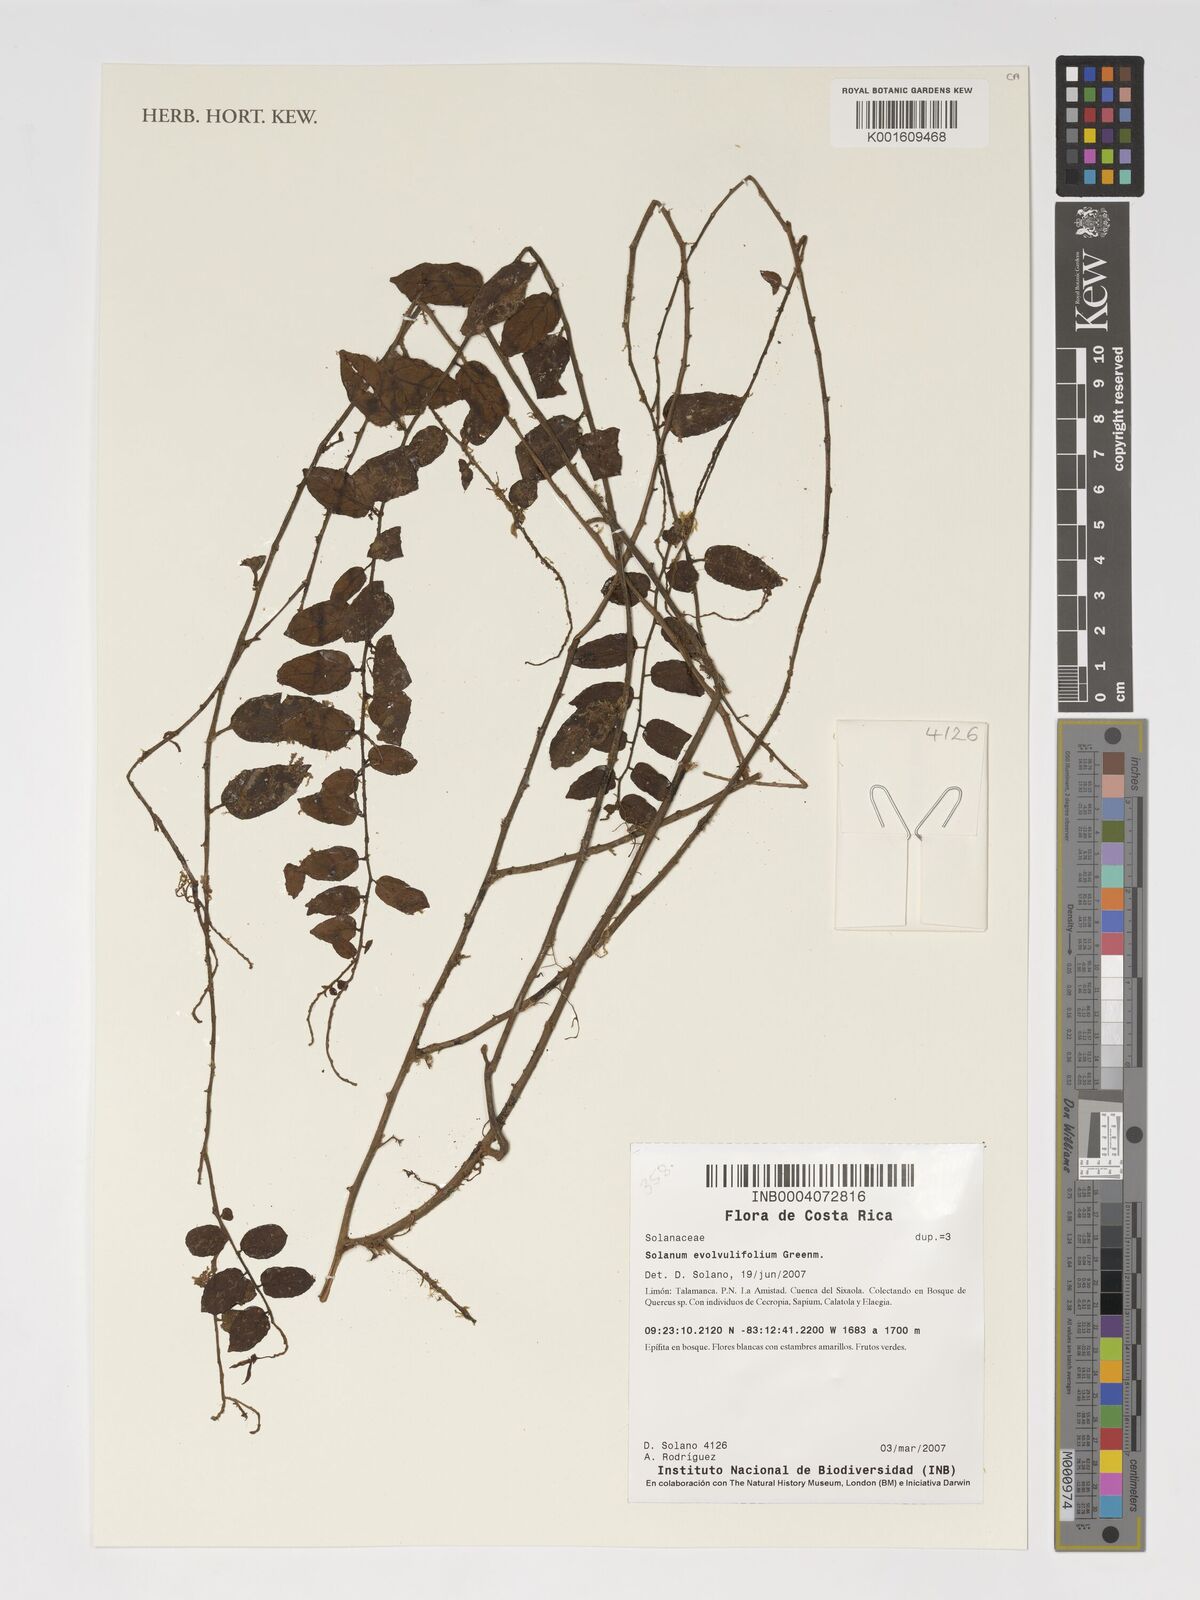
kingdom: Plantae
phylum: Tracheophyta
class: Magnoliopsida
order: Solanales
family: Solanaceae
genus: Solanum
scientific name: Solanum evolvulifolium
